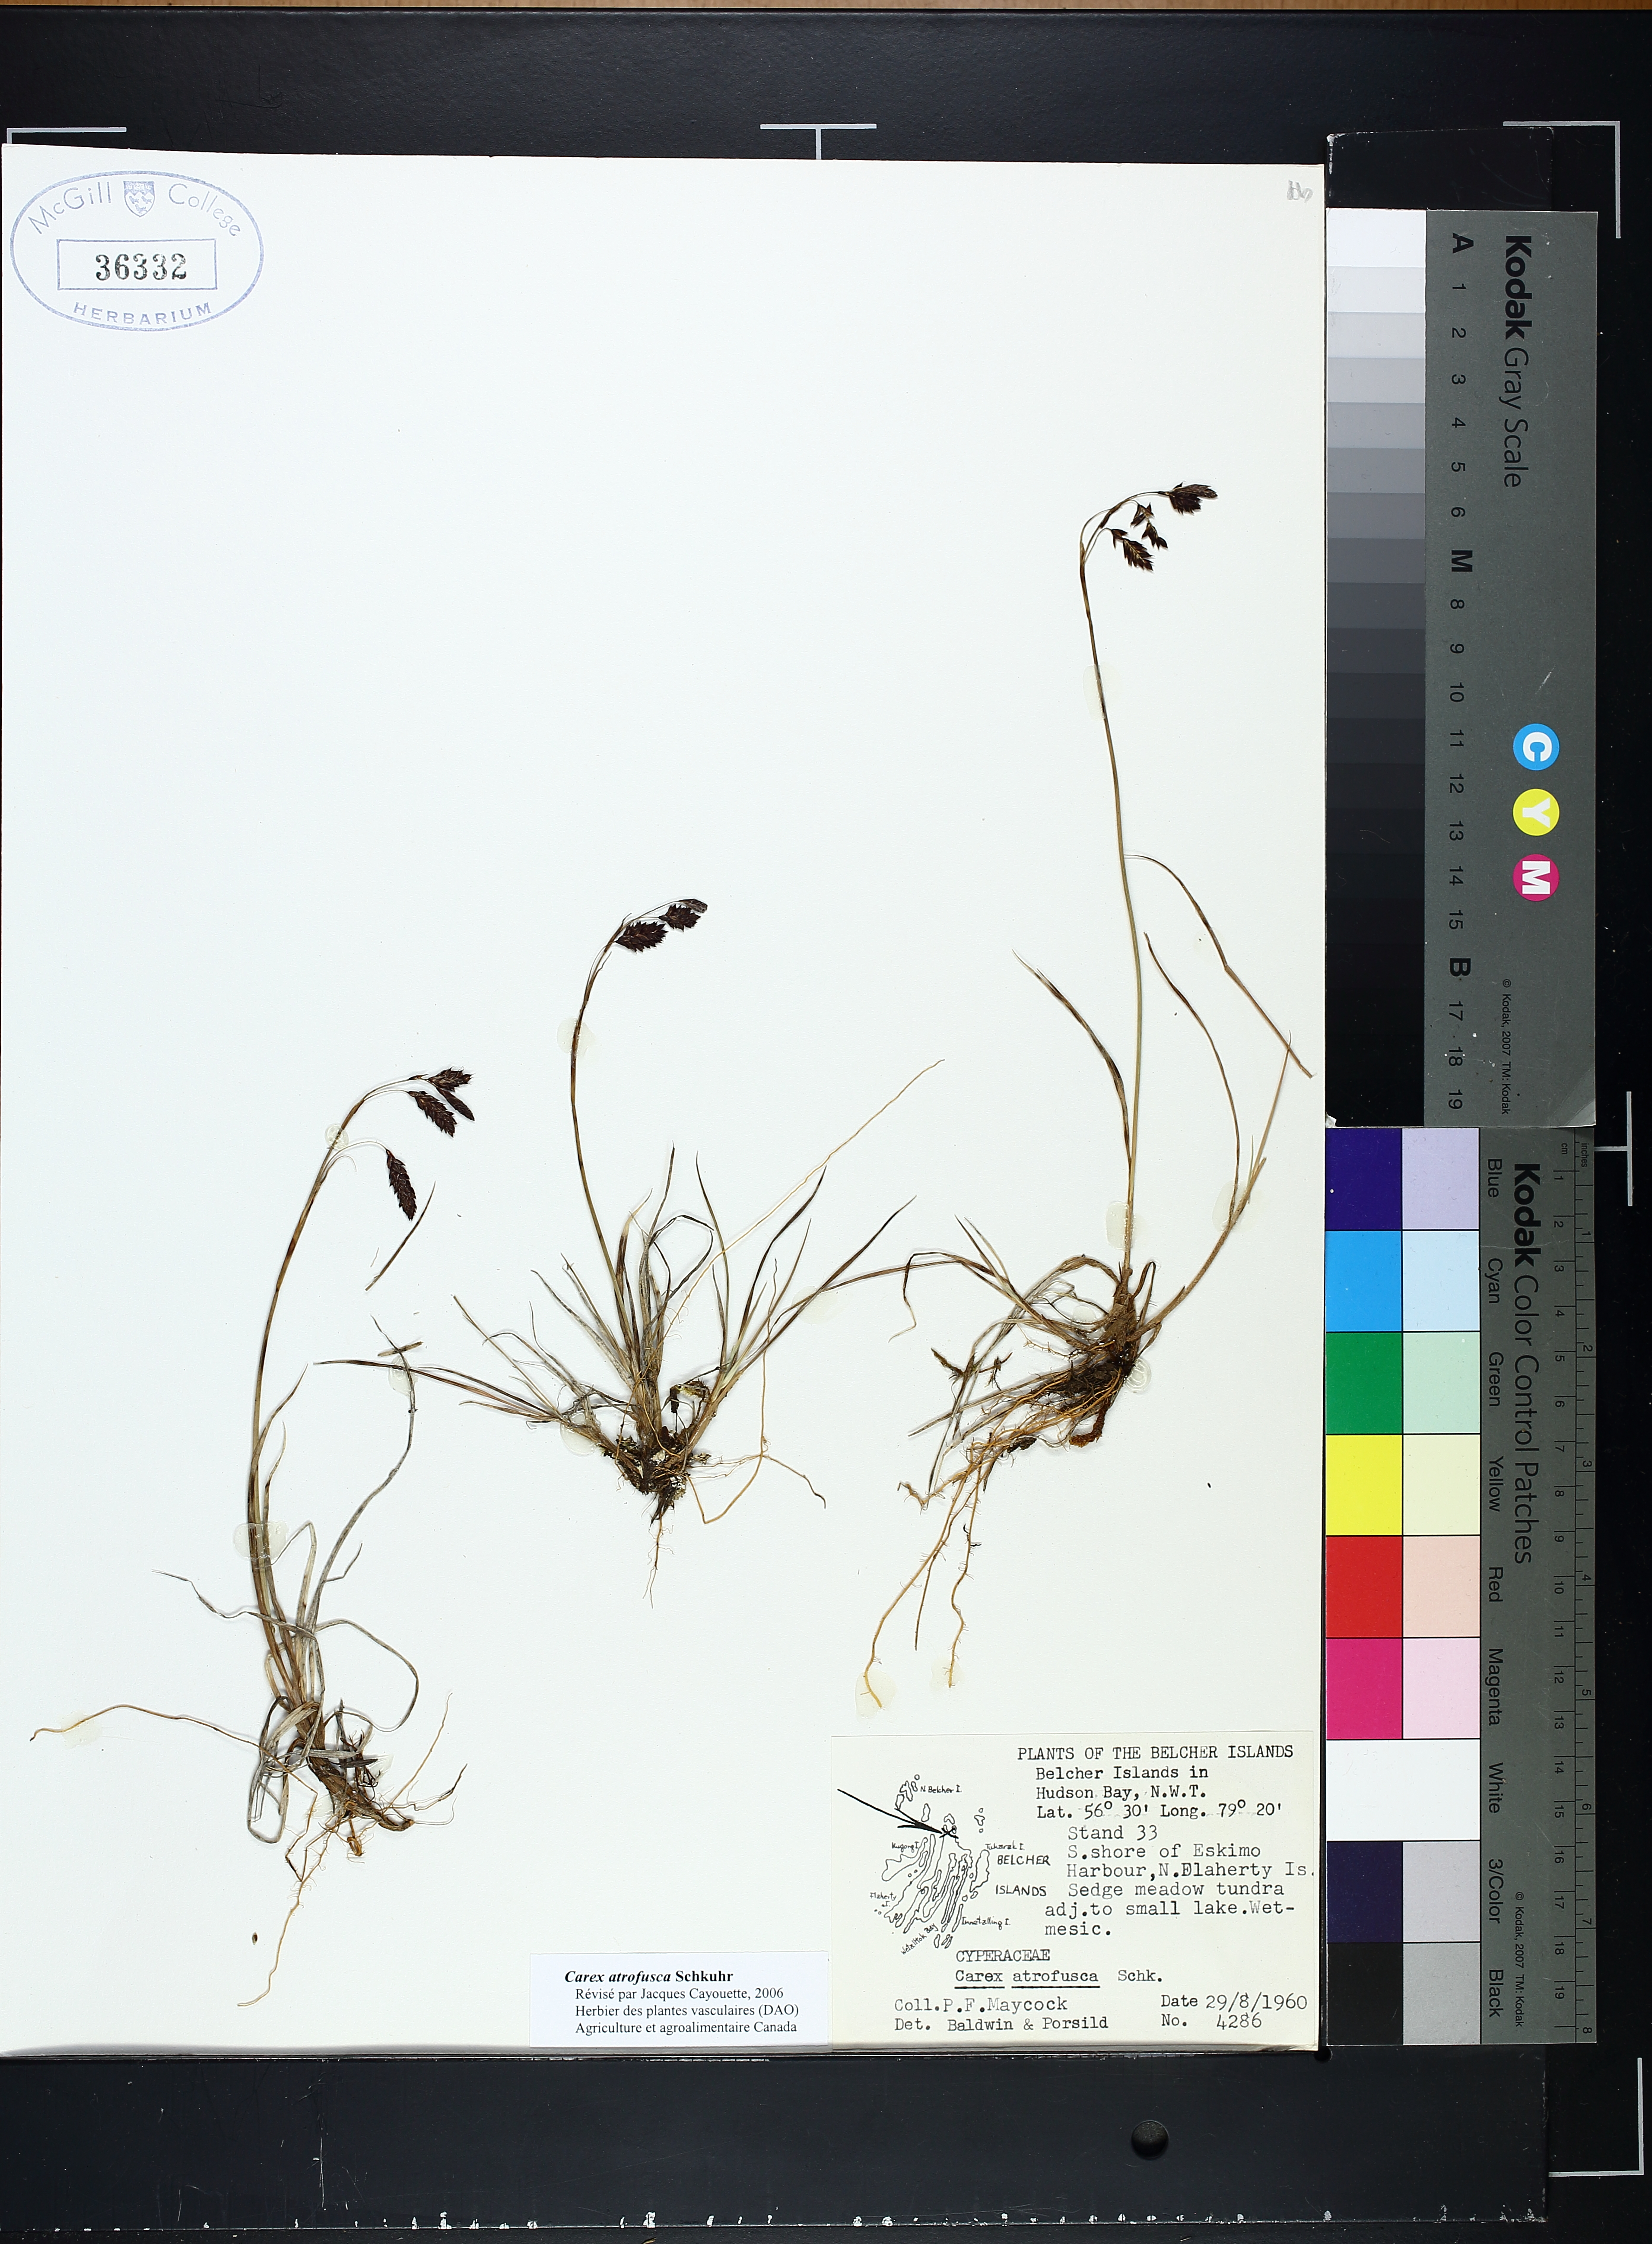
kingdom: Plantae
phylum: Tracheophyta
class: Liliopsida
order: Poales
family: Cyperaceae
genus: Carex
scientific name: Carex atrofusca
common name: Scorched alpine-sedge
